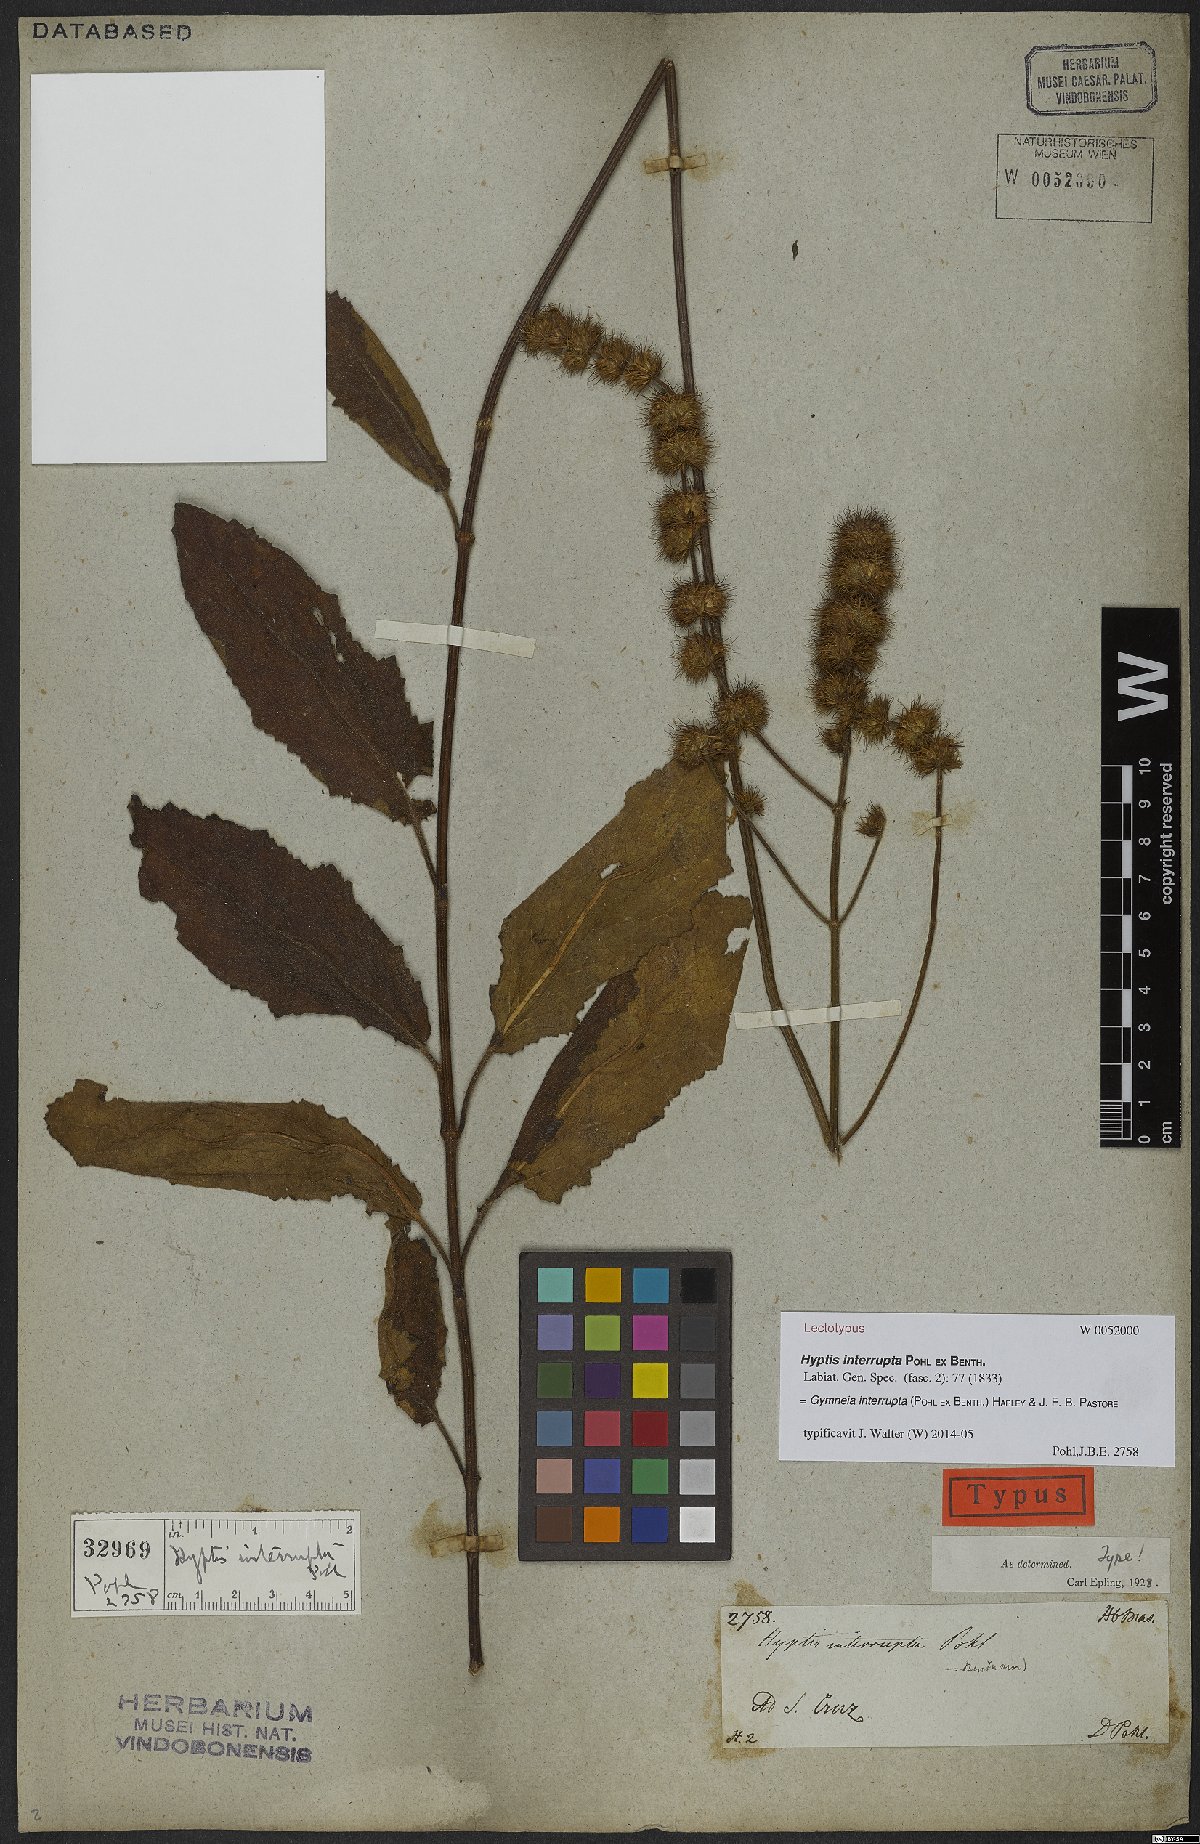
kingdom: Plantae
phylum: Tracheophyta
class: Magnoliopsida
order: Lamiales
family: Lamiaceae
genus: Gymneia
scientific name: Gymneia interrupta
